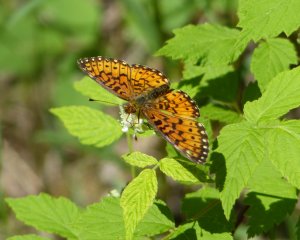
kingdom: Animalia
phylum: Arthropoda
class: Insecta
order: Lepidoptera
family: Nymphalidae
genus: Boloria
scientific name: Boloria selene
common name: Silver-bordered Fritillary
